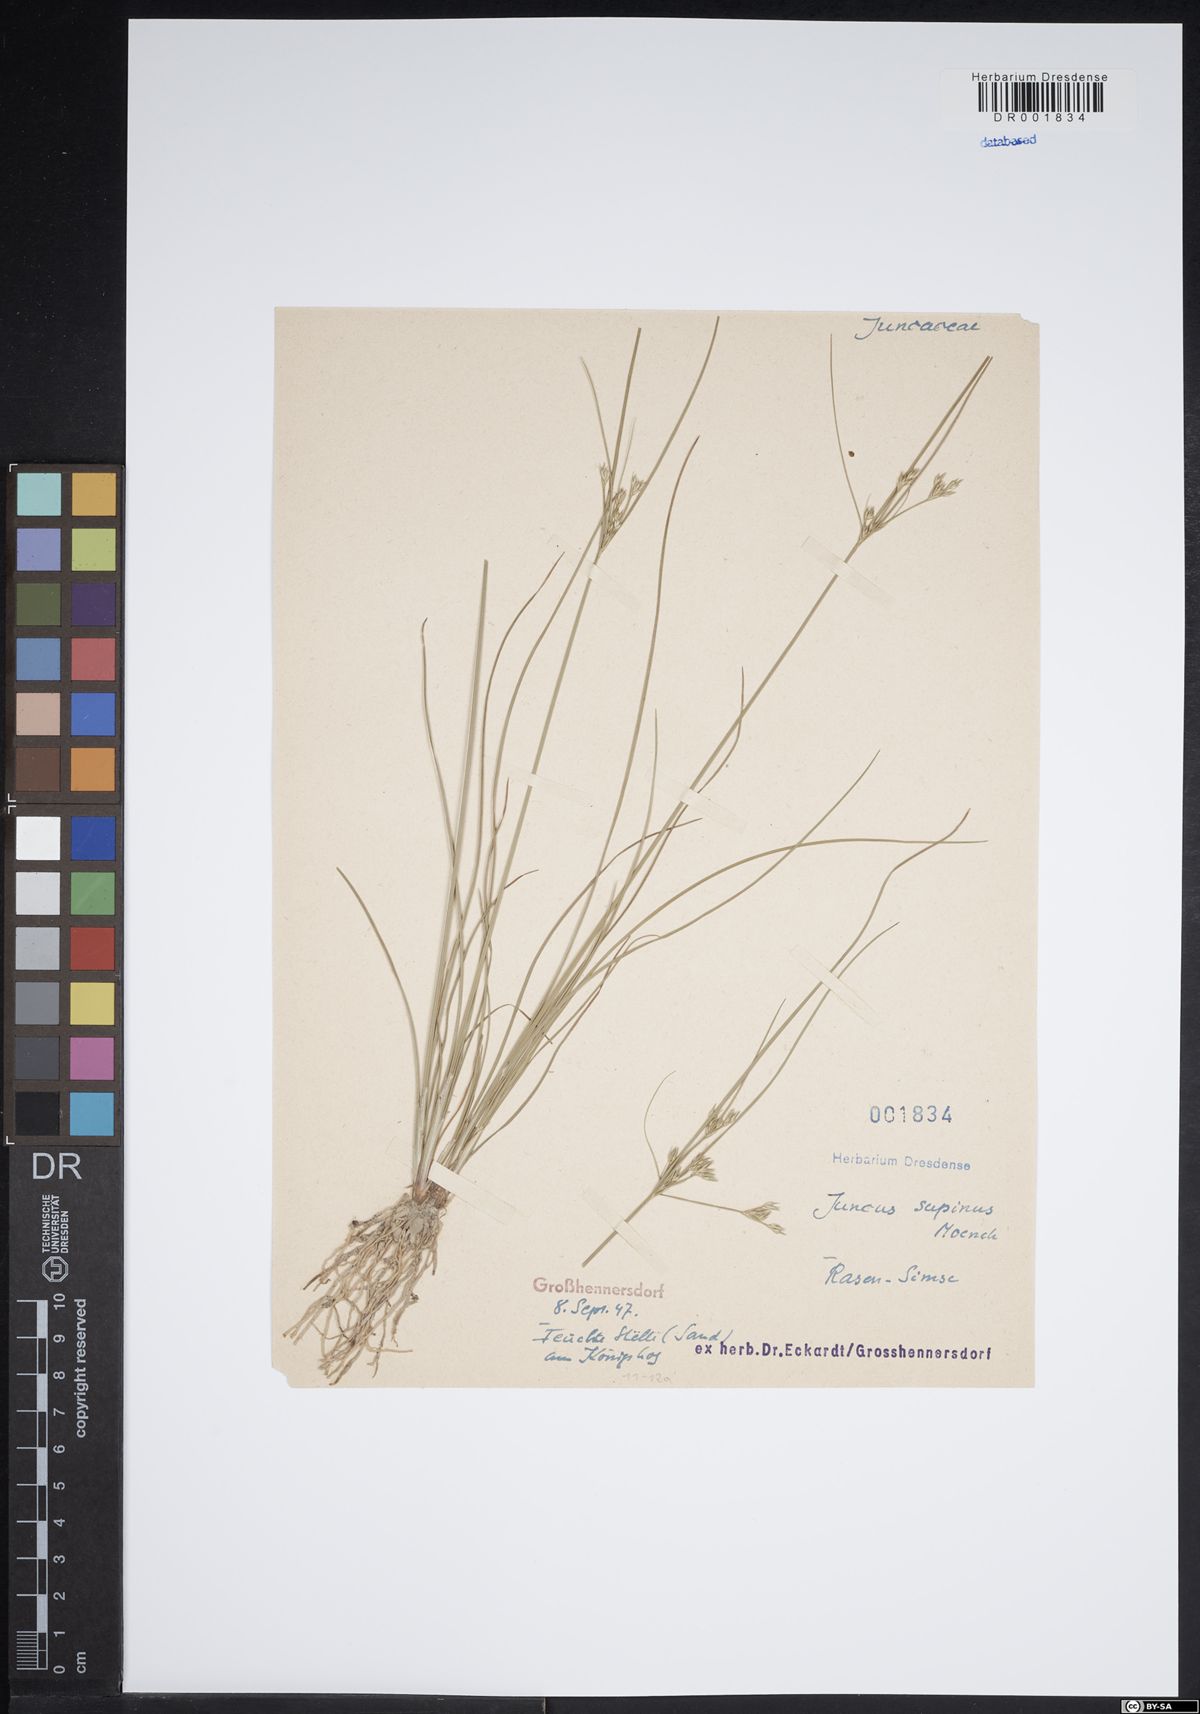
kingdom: Plantae
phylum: Tracheophyta
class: Liliopsida
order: Poales
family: Juncaceae
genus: Juncus
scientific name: Juncus bulbosus
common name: Bulbous rush
